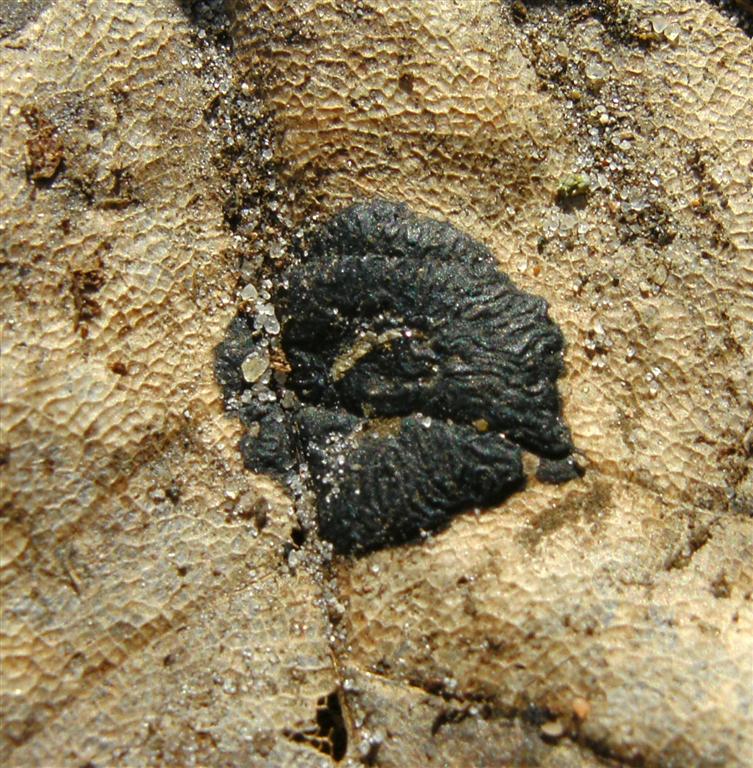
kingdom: Fungi
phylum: Ascomycota
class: Leotiomycetes
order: Rhytismatales
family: Rhytismataceae
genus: Rhytisma
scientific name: Rhytisma acerinum
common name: ahorn-rynkeplet
